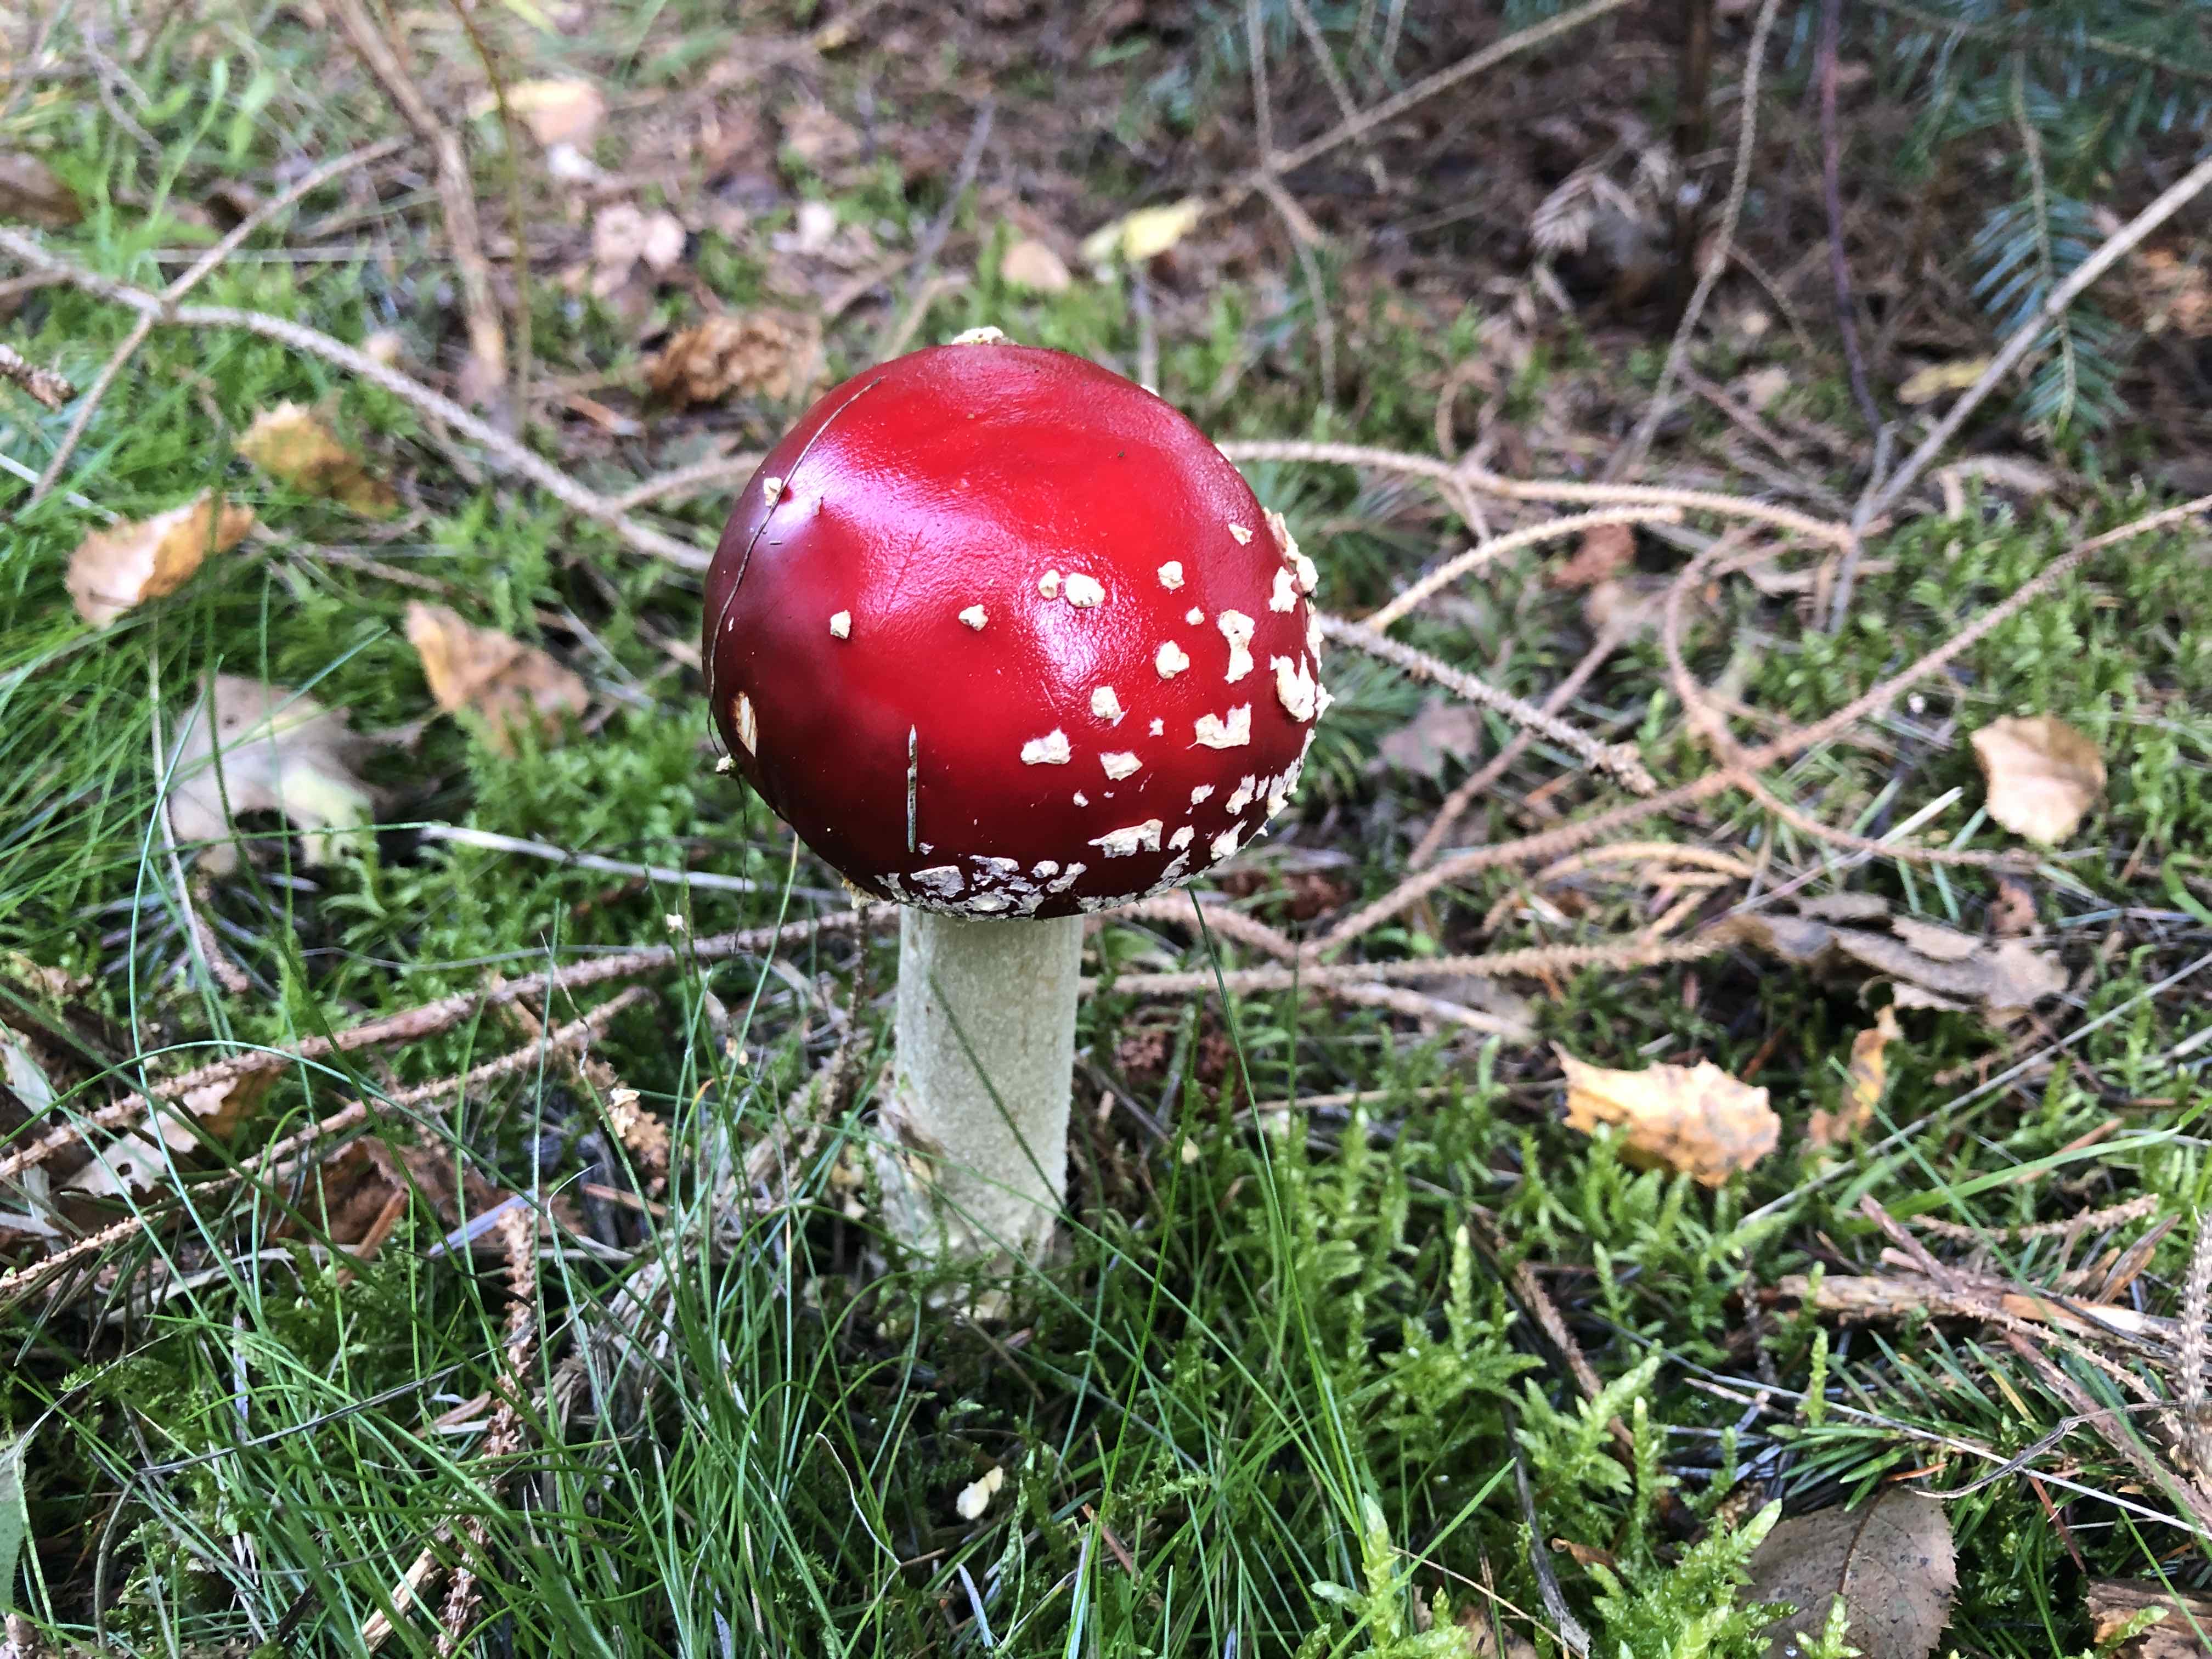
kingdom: Fungi
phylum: Basidiomycota
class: Agaricomycetes
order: Agaricales
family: Amanitaceae
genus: Amanita
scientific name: Amanita muscaria
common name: rød fluesvamp
